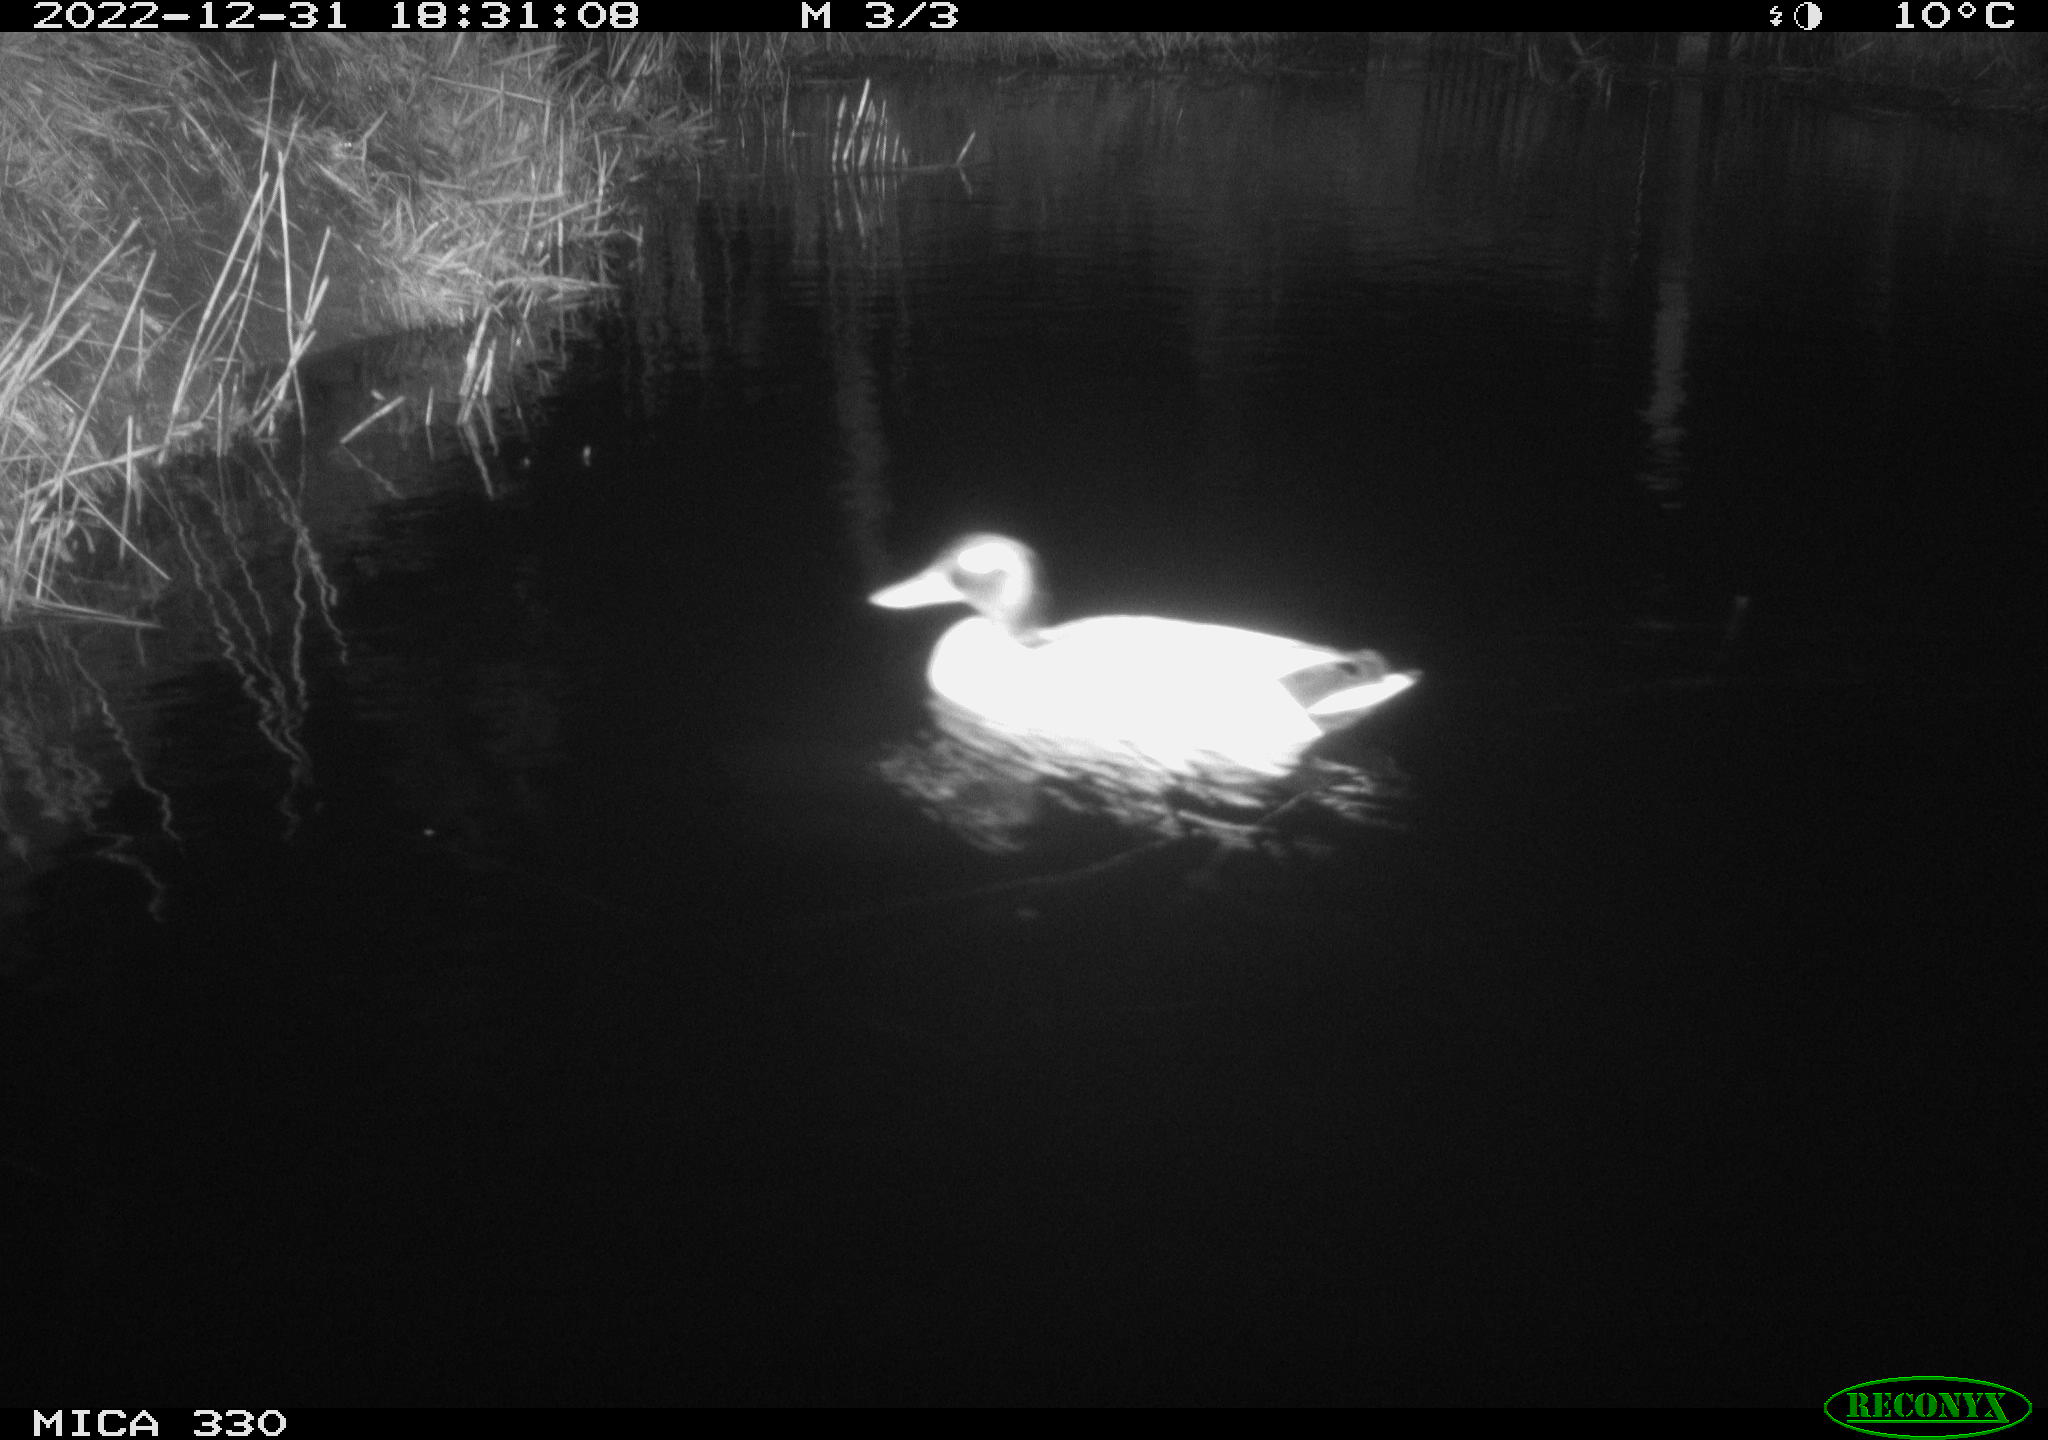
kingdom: Animalia
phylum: Chordata
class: Aves
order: Anseriformes
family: Anatidae
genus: Anas
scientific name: Anas
